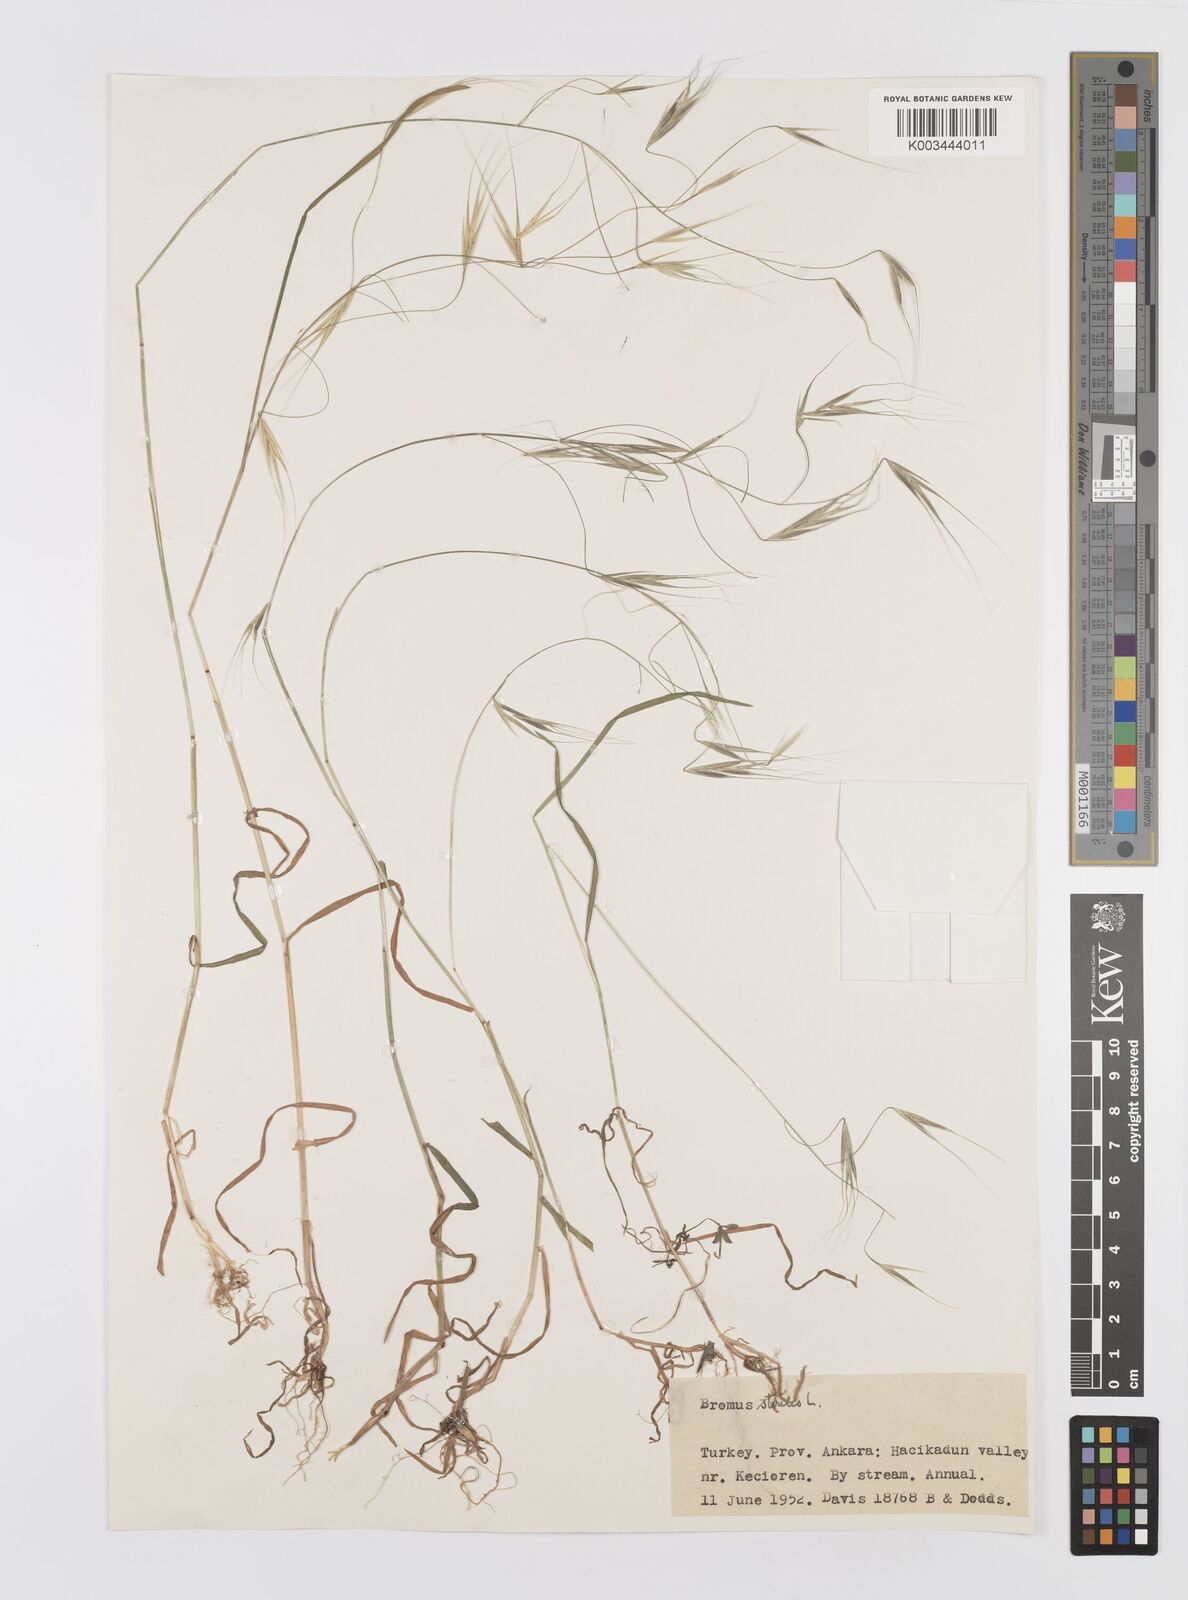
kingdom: Plantae
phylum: Tracheophyta
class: Liliopsida
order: Poales
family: Poaceae
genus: Bromus
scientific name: Bromus sterilis
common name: Poverty brome
